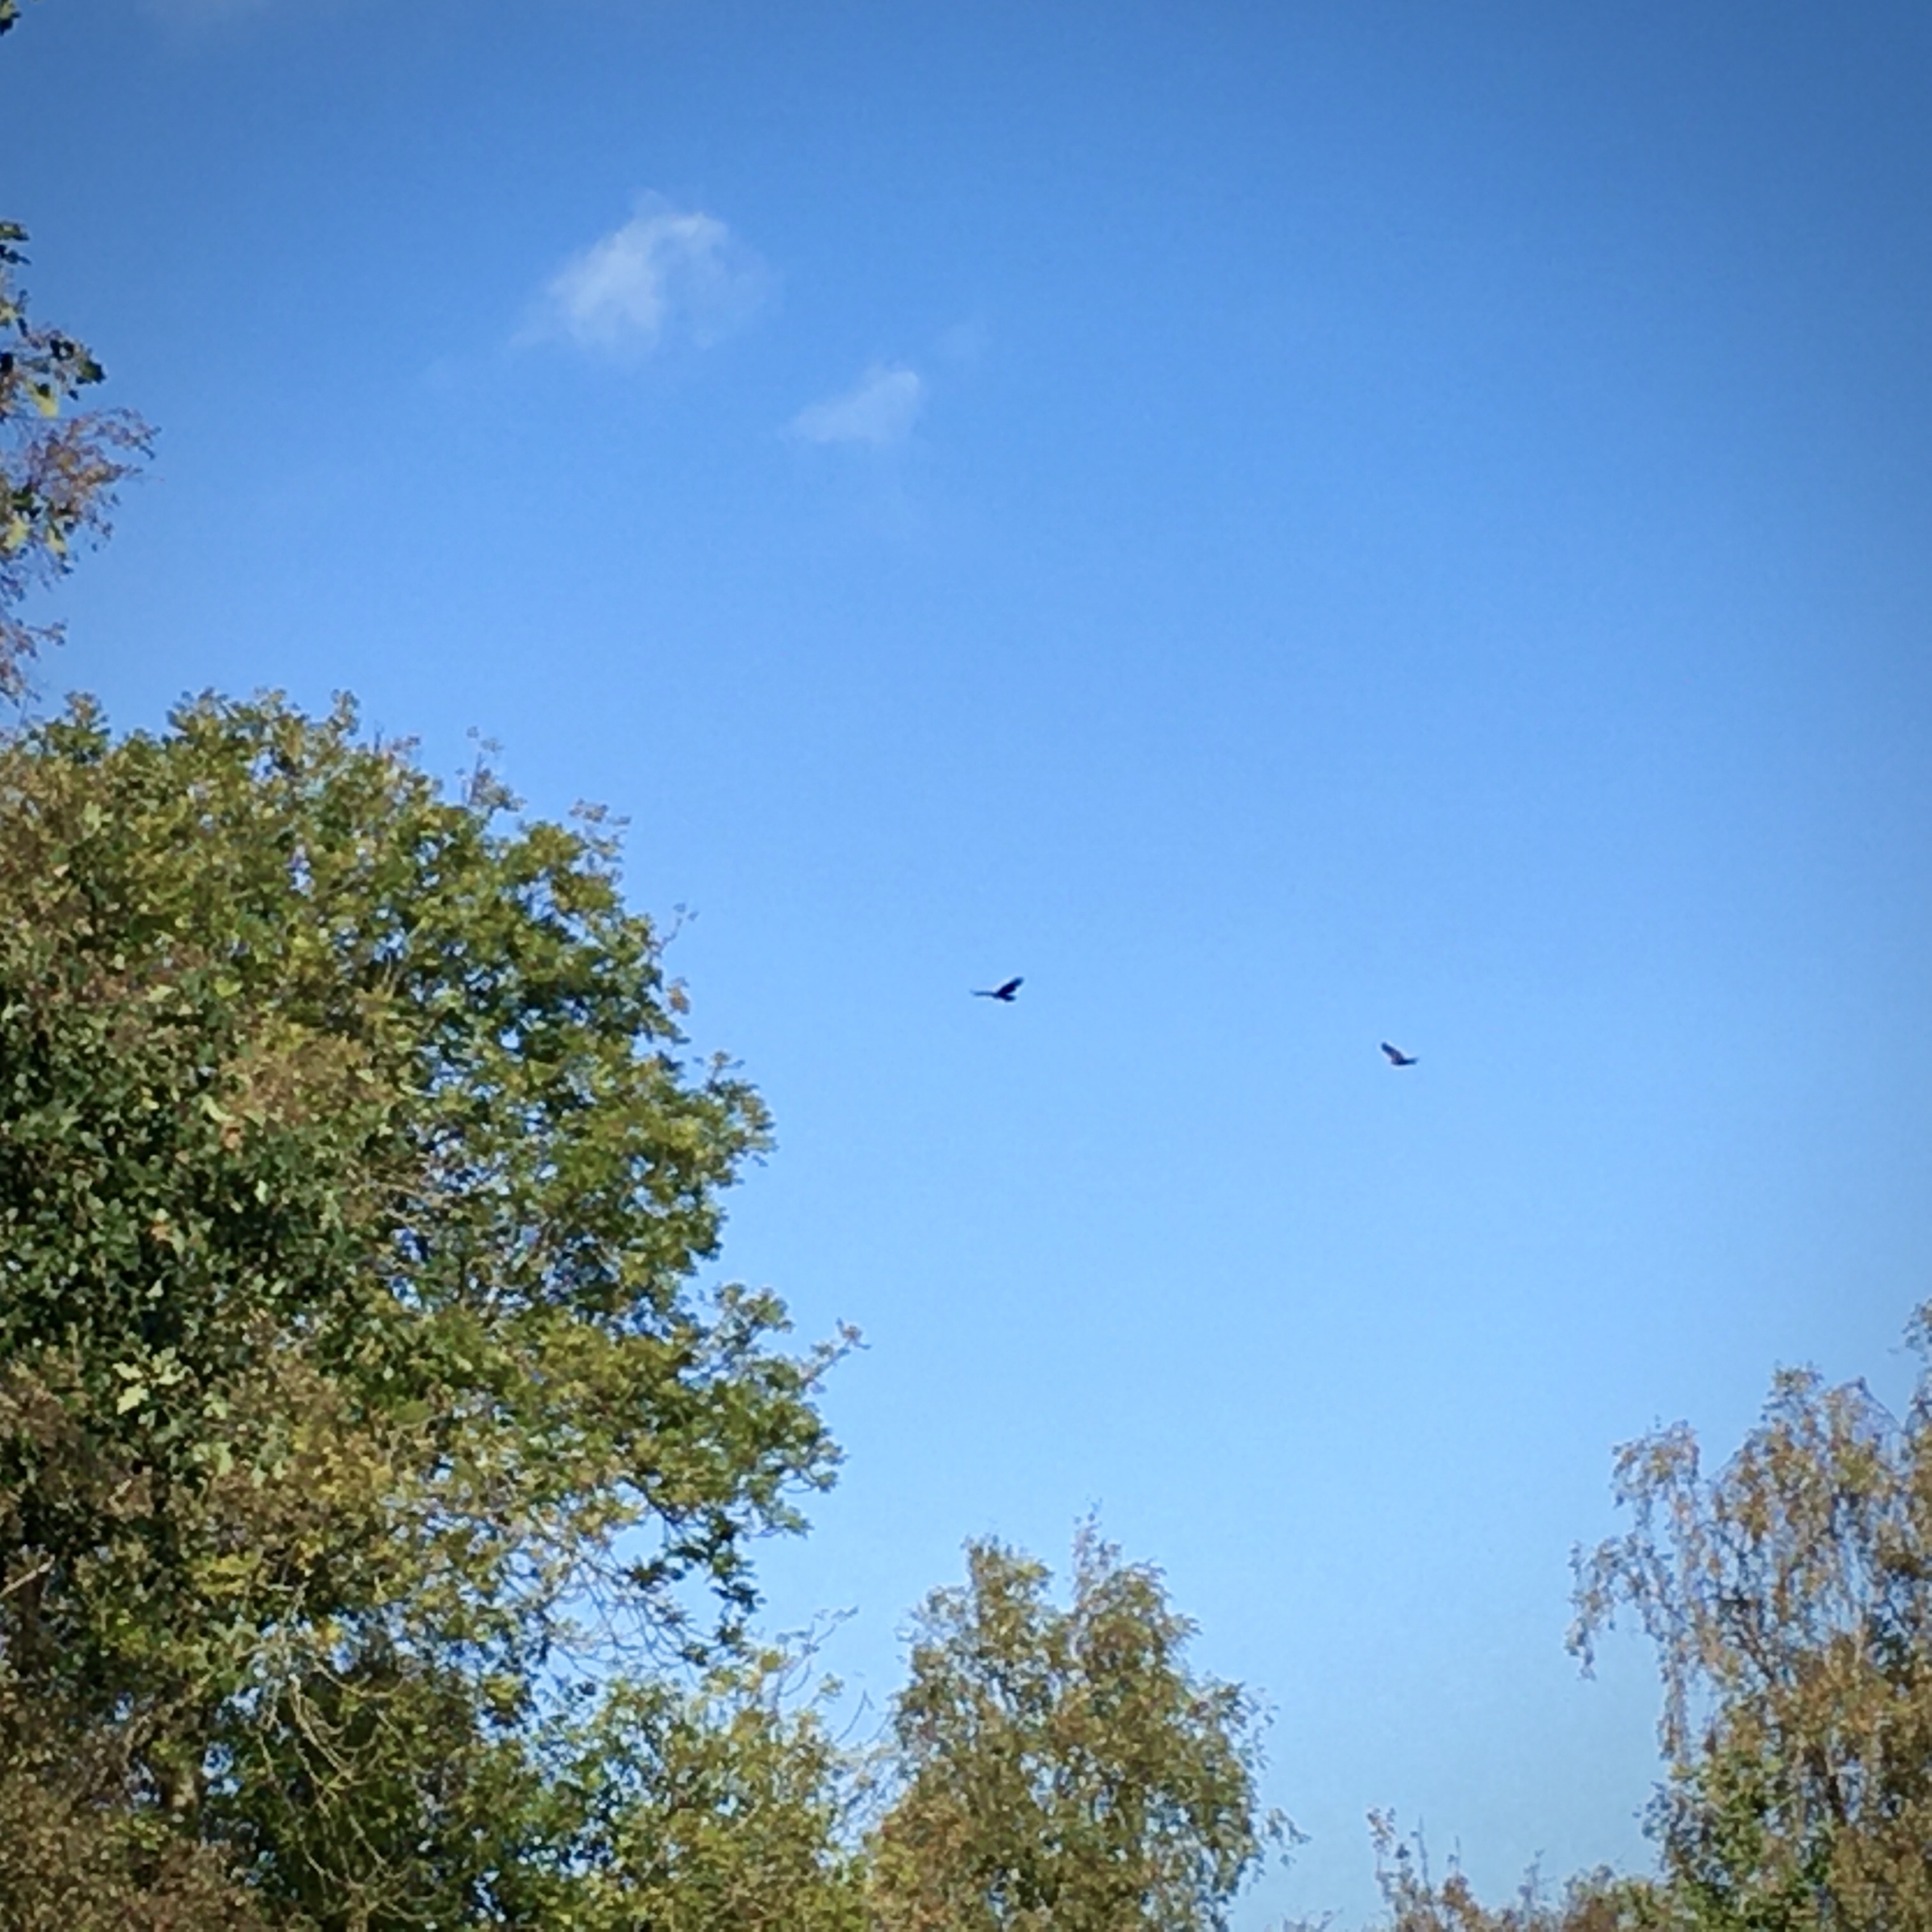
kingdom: Animalia
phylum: Chordata
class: Aves
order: Accipitriformes
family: Accipitridae
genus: Buteo
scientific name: Buteo buteo
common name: Musvåge
